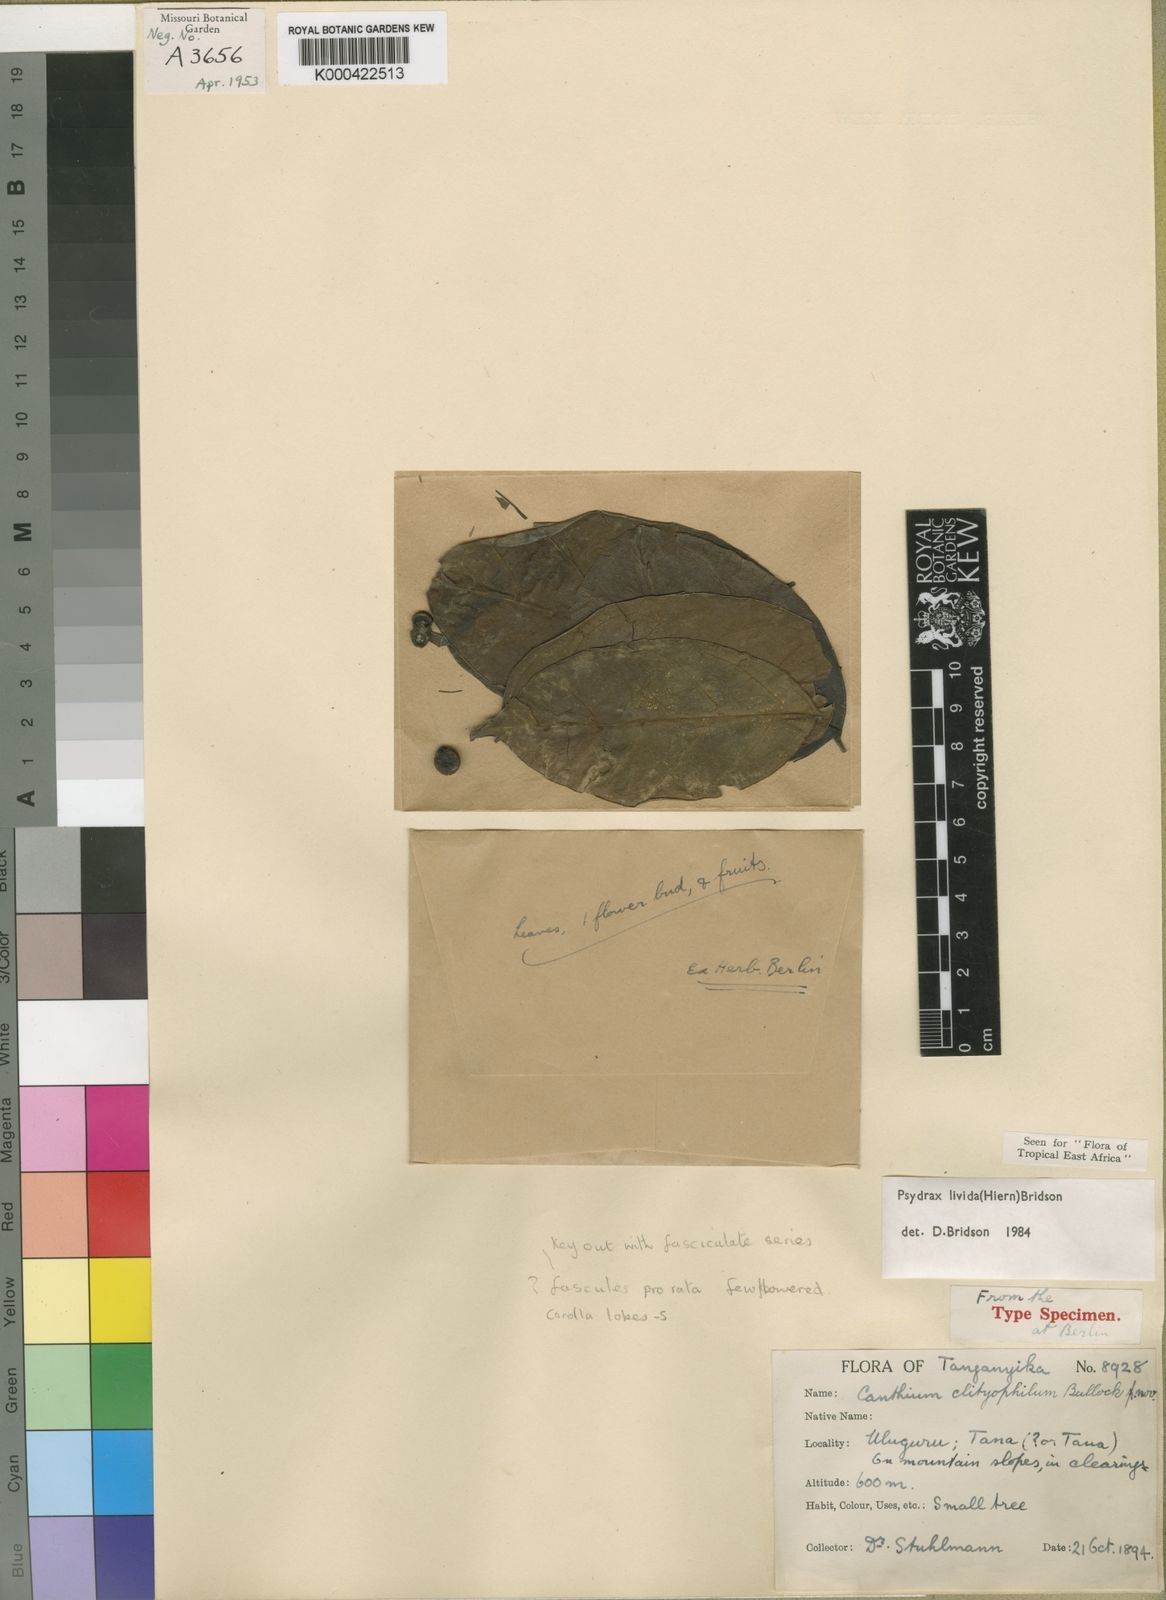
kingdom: Plantae
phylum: Tracheophyta
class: Magnoliopsida
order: Gentianales
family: Rubiaceae
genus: Psydrax
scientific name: Psydrax lividus
